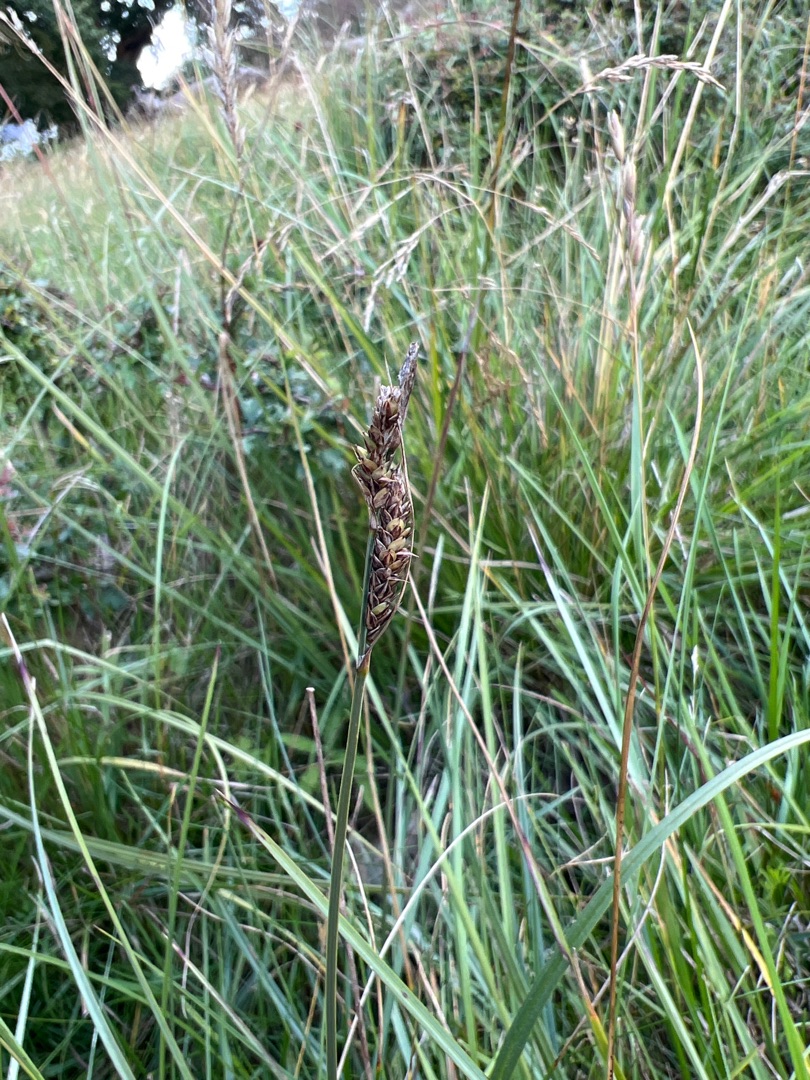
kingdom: Plantae
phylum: Tracheophyta
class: Liliopsida
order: Poales
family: Cyperaceae
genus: Carex
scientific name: Carex hartmaniorum
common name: Hartmans star
